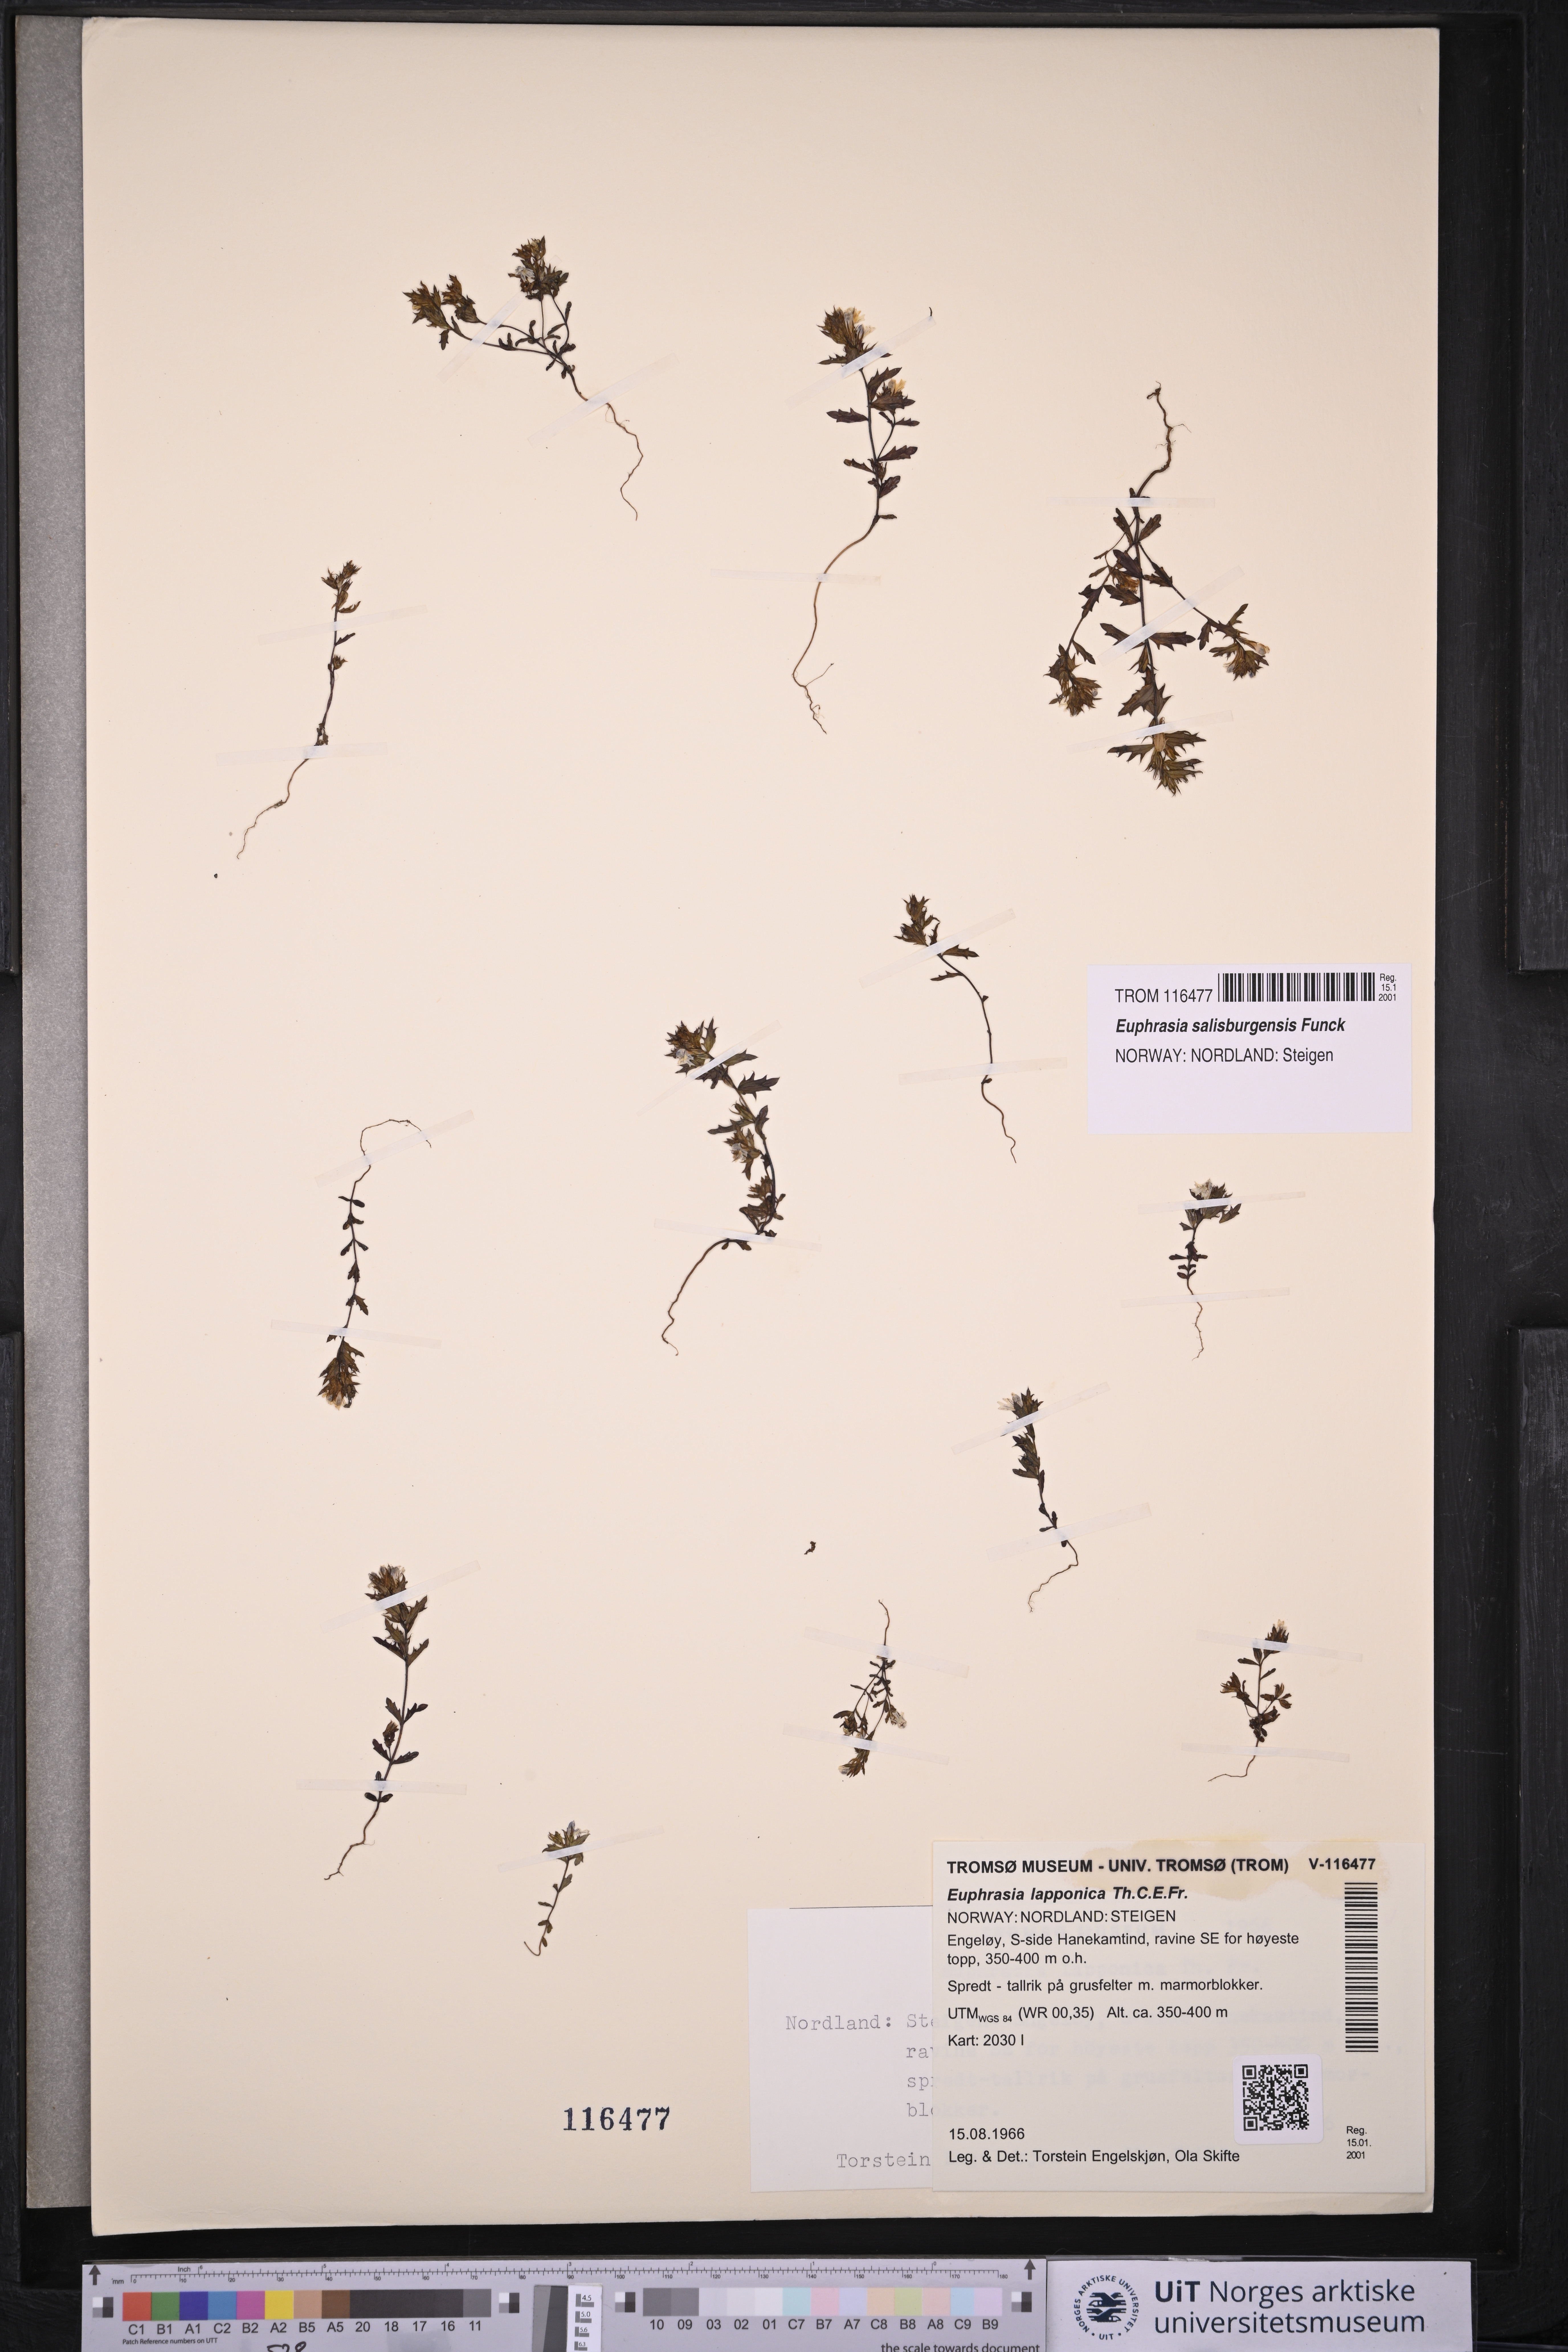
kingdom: Plantae
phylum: Tracheophyta
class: Magnoliopsida
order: Lamiales
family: Orobanchaceae
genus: Euphrasia
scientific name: Euphrasia salisburgensis
